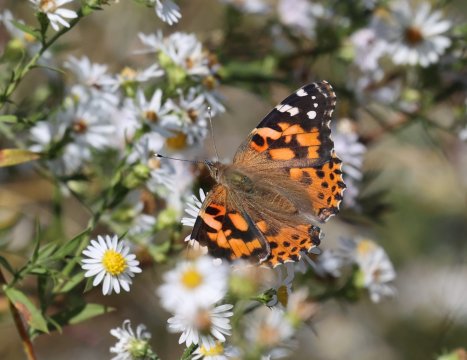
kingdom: Animalia
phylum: Arthropoda
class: Insecta
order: Lepidoptera
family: Nymphalidae
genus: Vanessa
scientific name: Vanessa cardui
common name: Painted Lady
